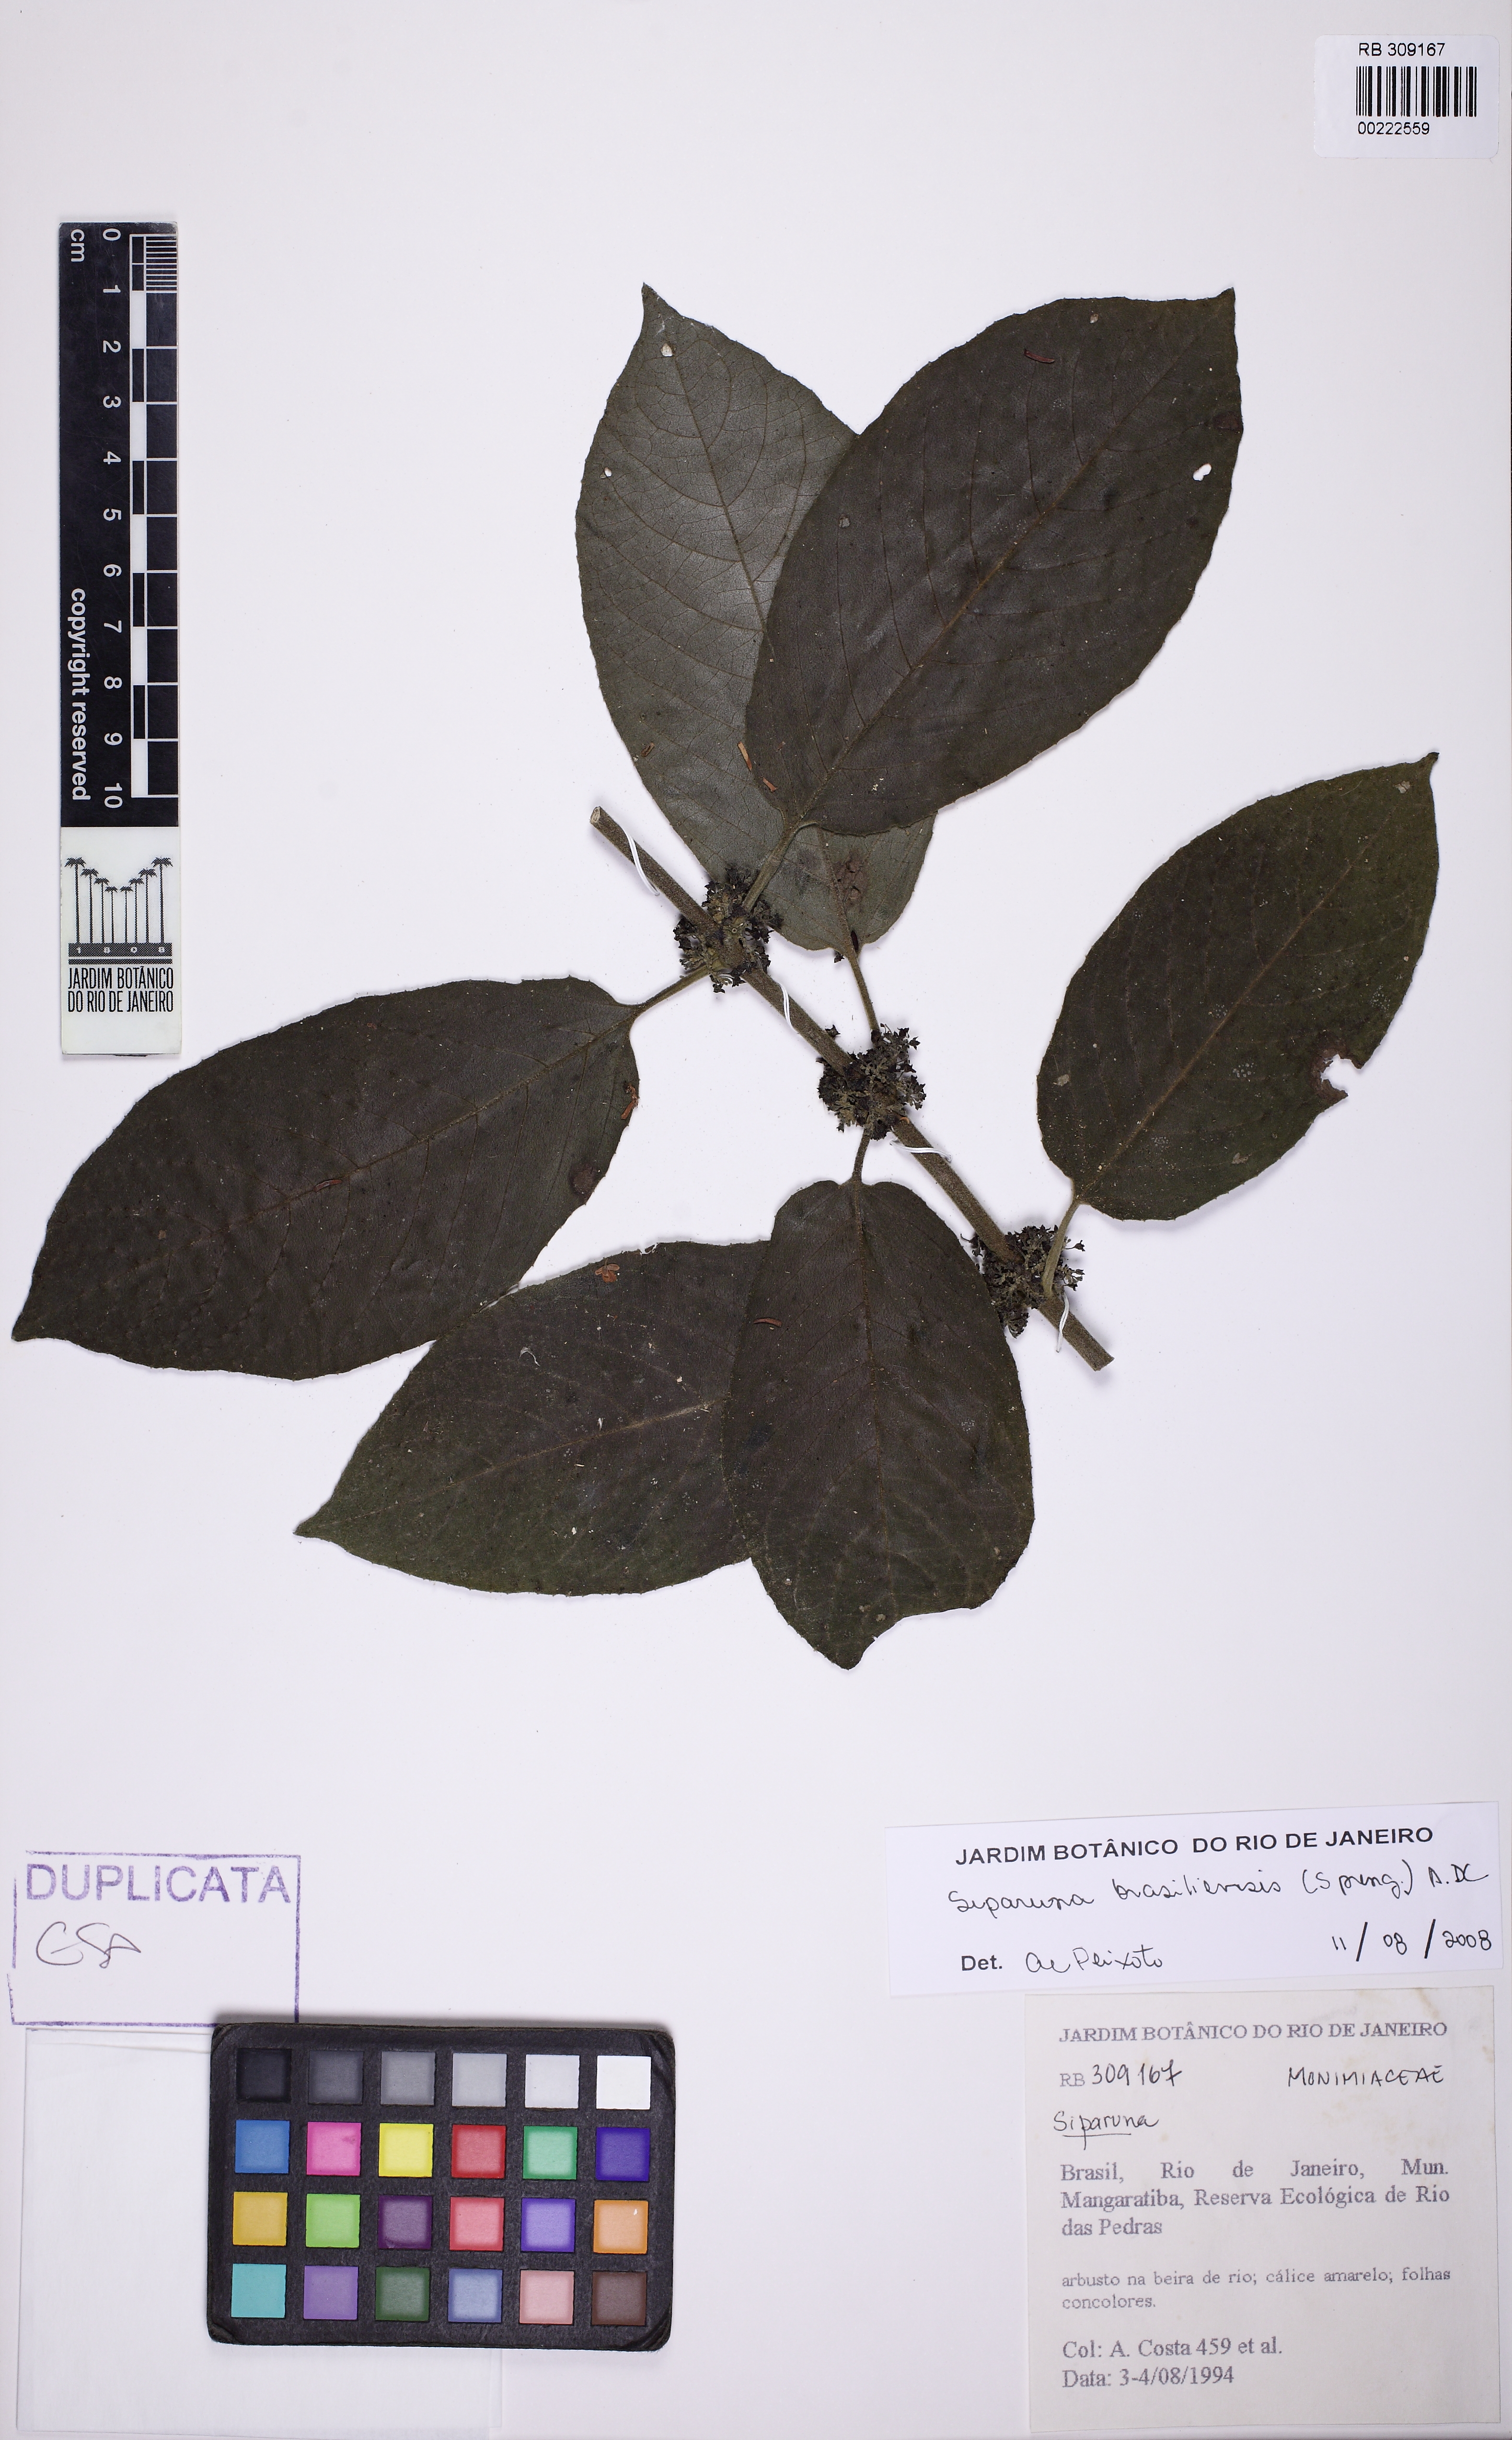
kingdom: Plantae
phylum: Tracheophyta
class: Magnoliopsida
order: Laurales
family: Siparunaceae
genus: Siparuna
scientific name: Siparuna brasiliensis
